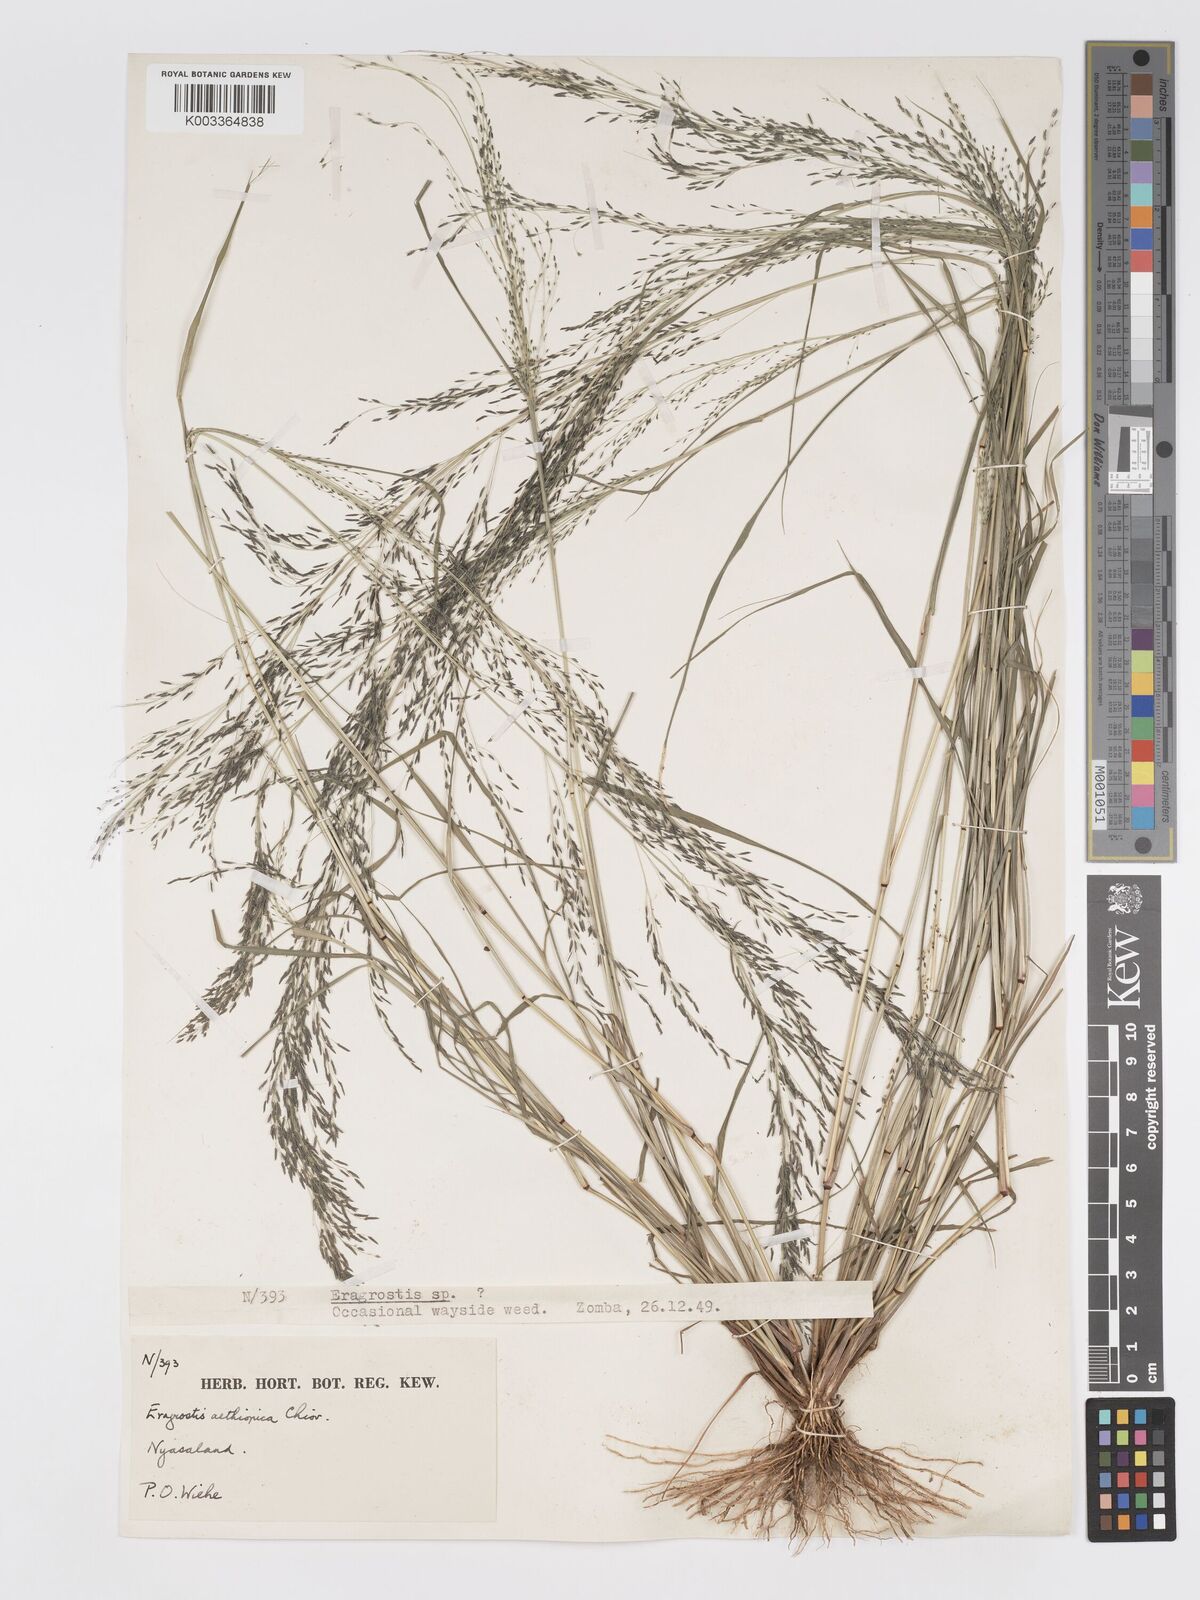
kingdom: Plantae
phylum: Tracheophyta
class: Liliopsida
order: Poales
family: Poaceae
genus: Eragrostis
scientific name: Eragrostis aethiopica
